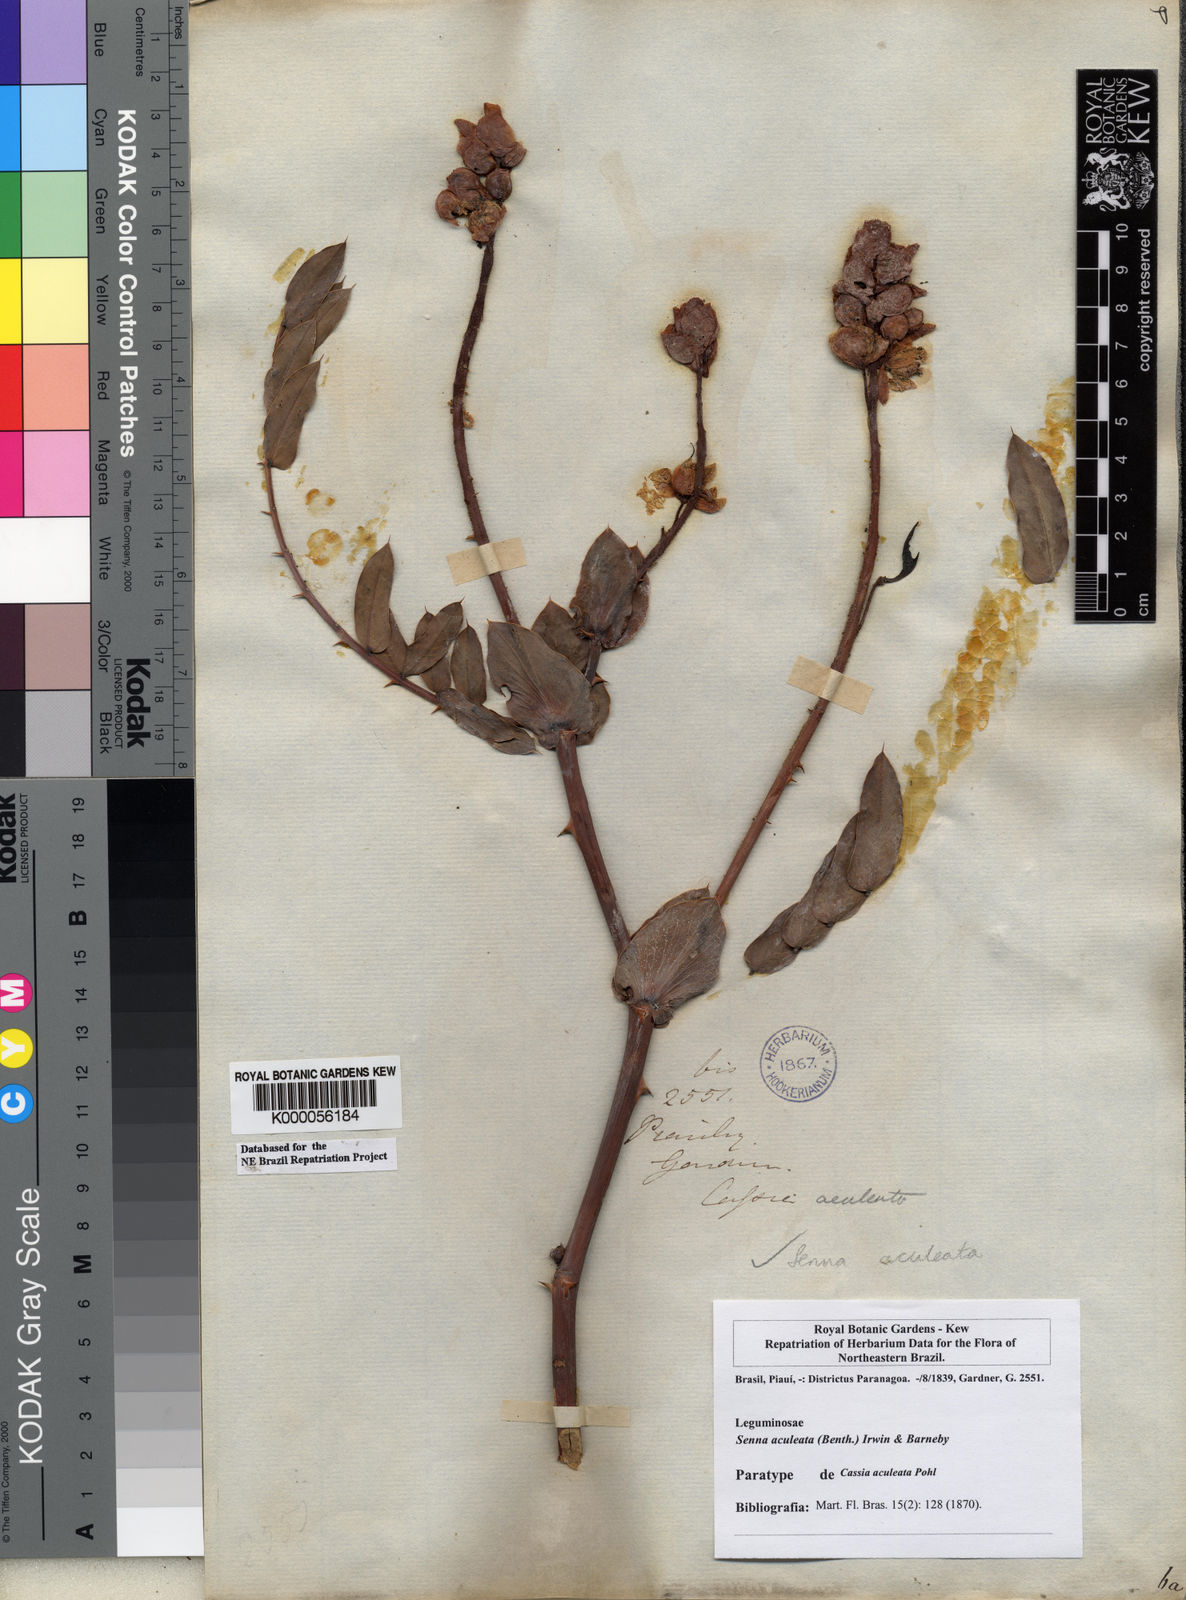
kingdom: Plantae
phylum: Tracheophyta
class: Magnoliopsida
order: Fabales
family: Fabaceae
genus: Senna
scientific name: Senna aculeata
